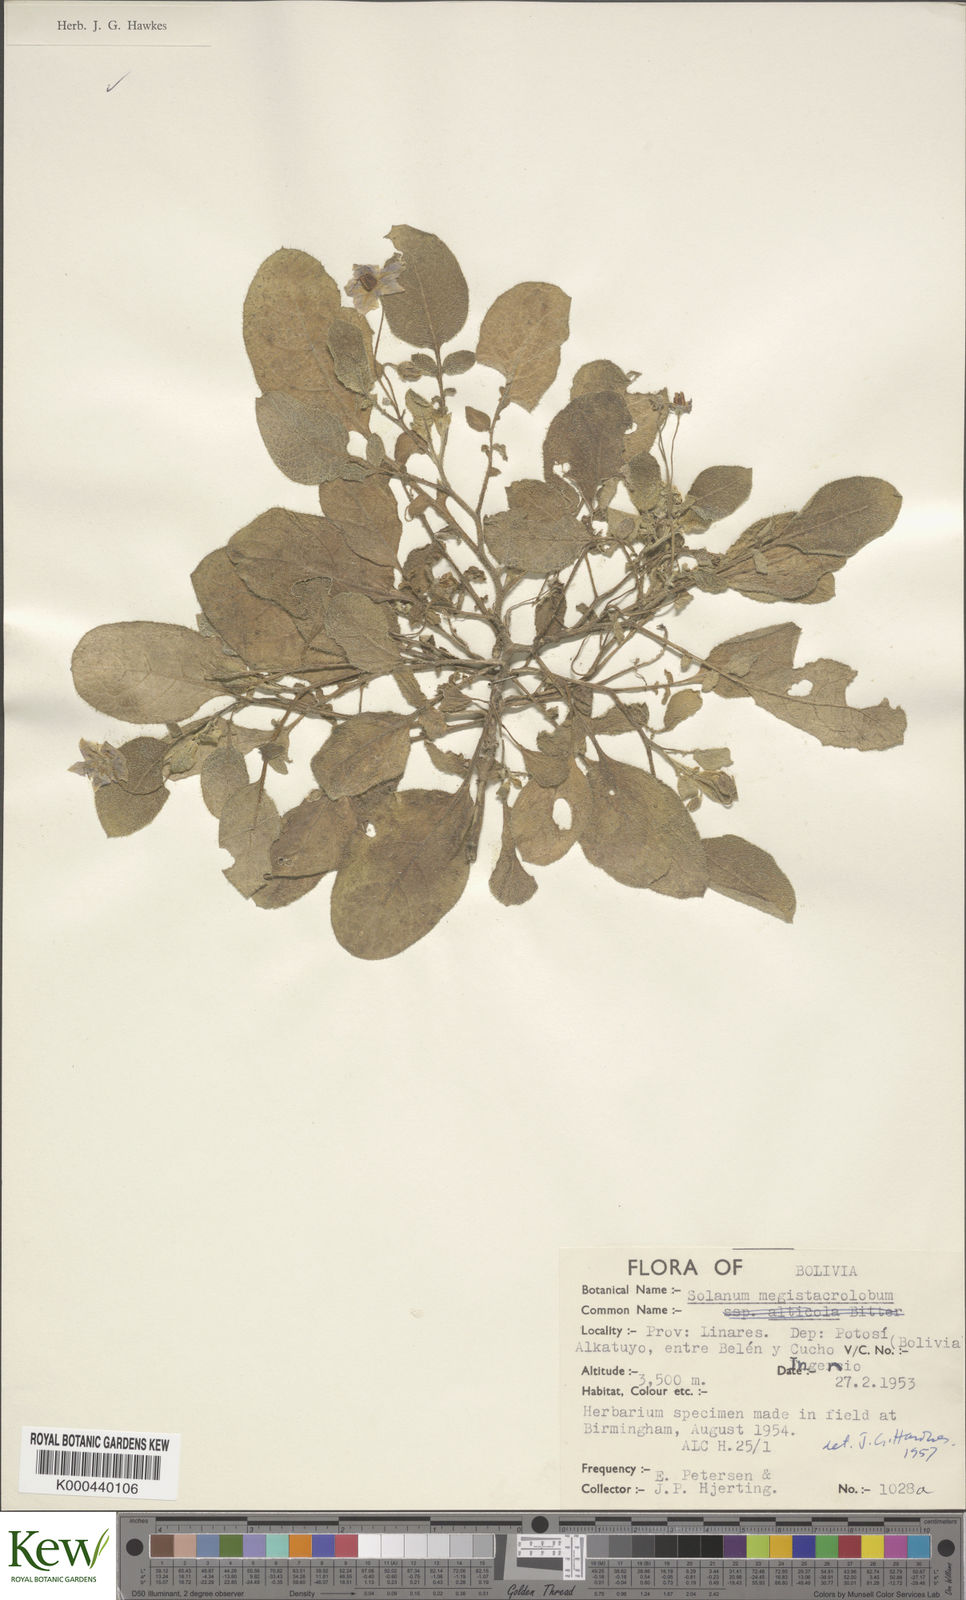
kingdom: Plantae
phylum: Tracheophyta
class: Magnoliopsida
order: Solanales
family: Solanaceae
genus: Solanum
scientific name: Solanum boliviense
